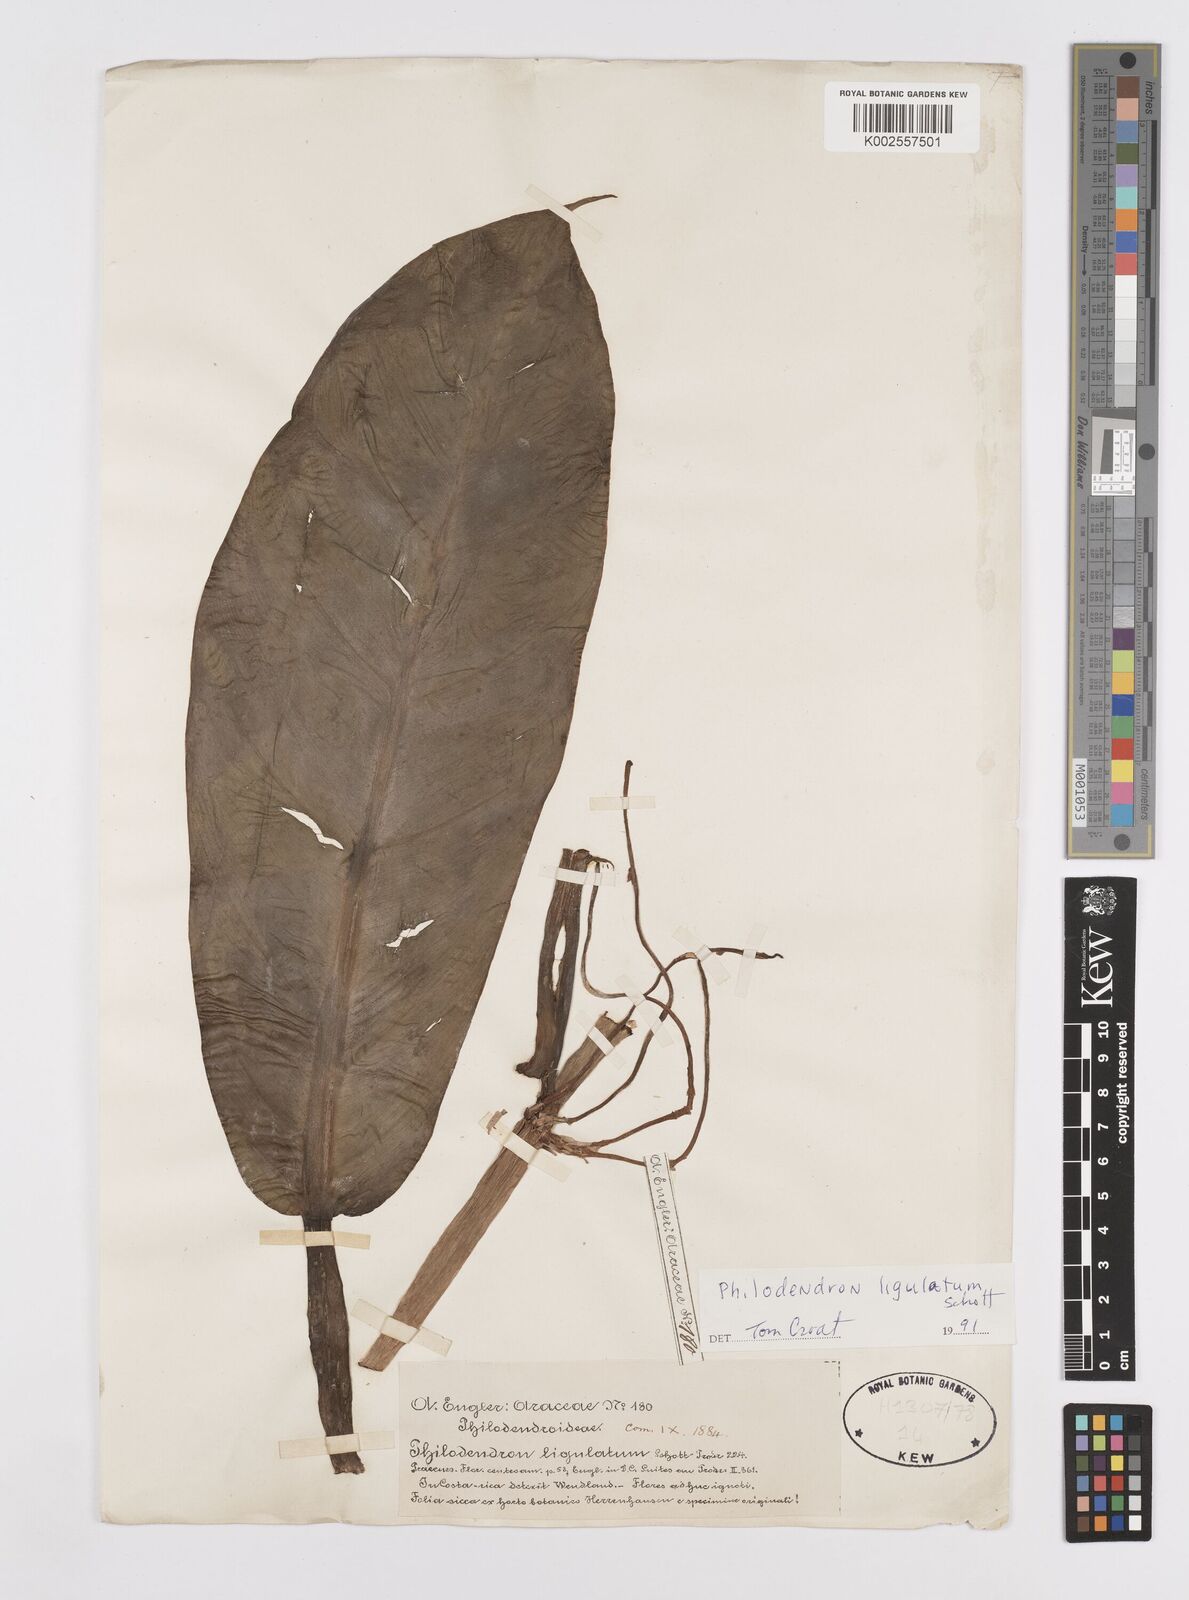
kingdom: Plantae
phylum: Tracheophyta
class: Liliopsida
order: Alismatales
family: Araceae
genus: Philodendron
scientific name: Philodendron ligulatum
